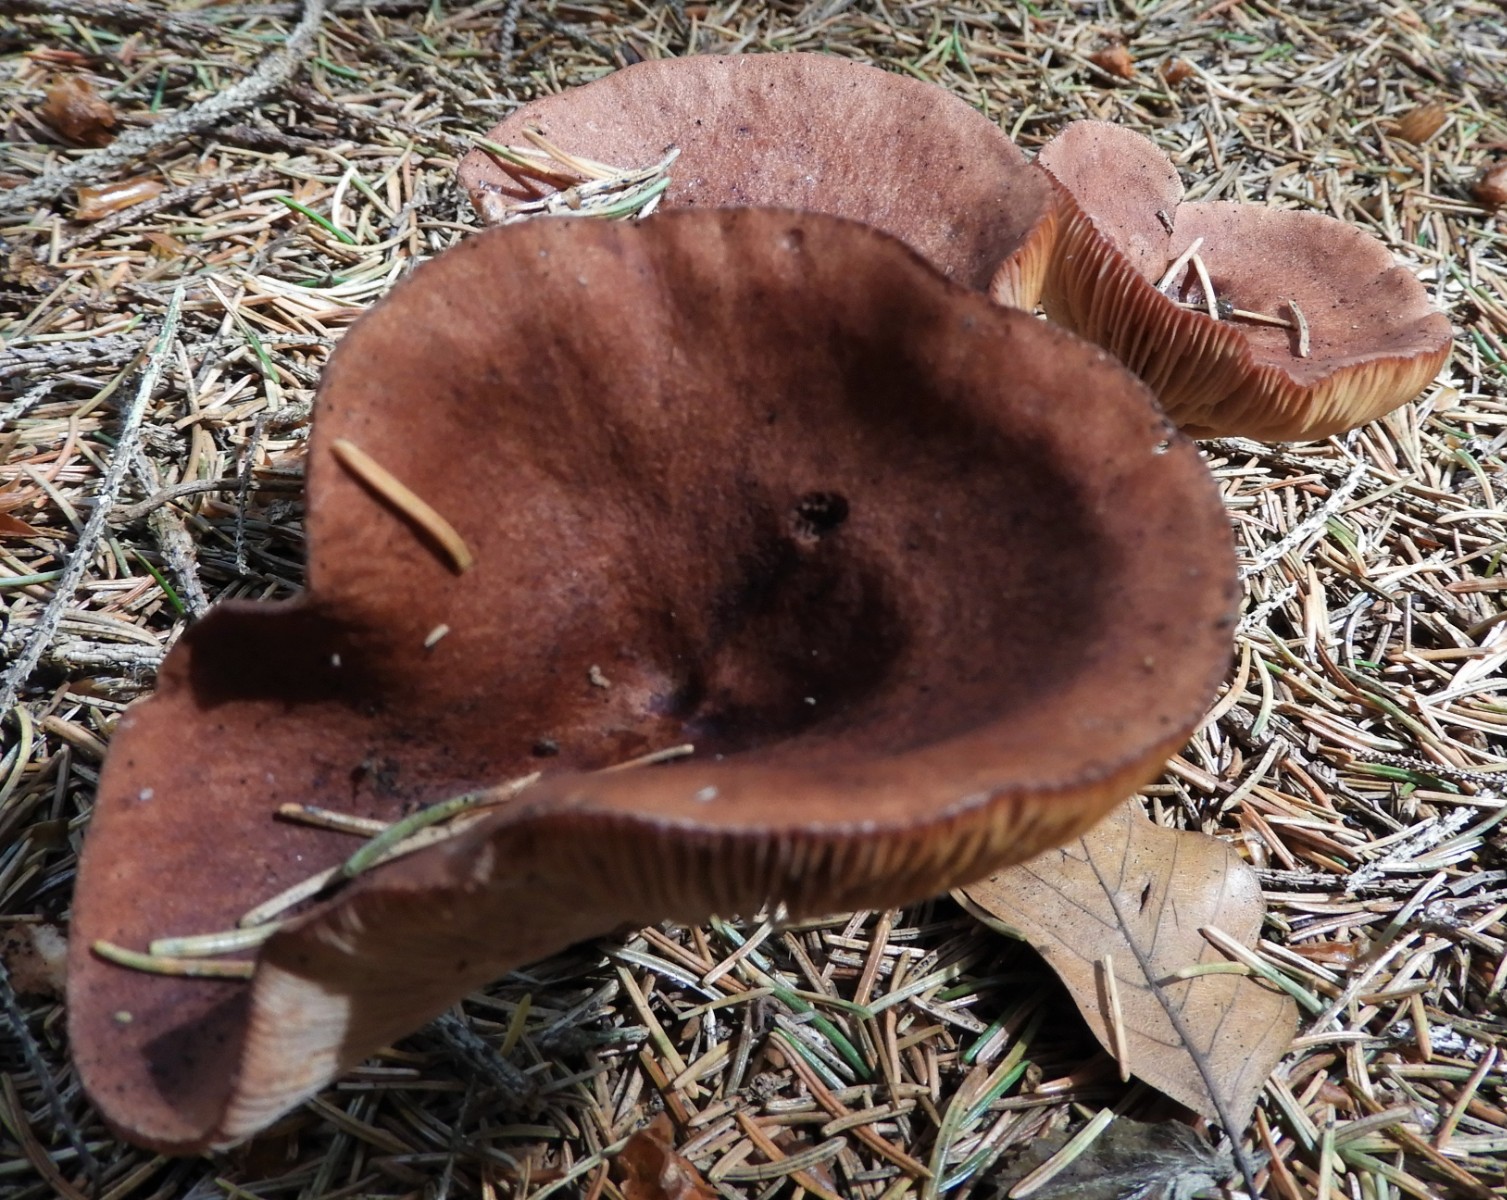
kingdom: Fungi
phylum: Basidiomycota
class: Agaricomycetes
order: Russulales
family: Russulaceae
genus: Lactarius
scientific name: Lactarius rufus
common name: rødbrun mælkehat
